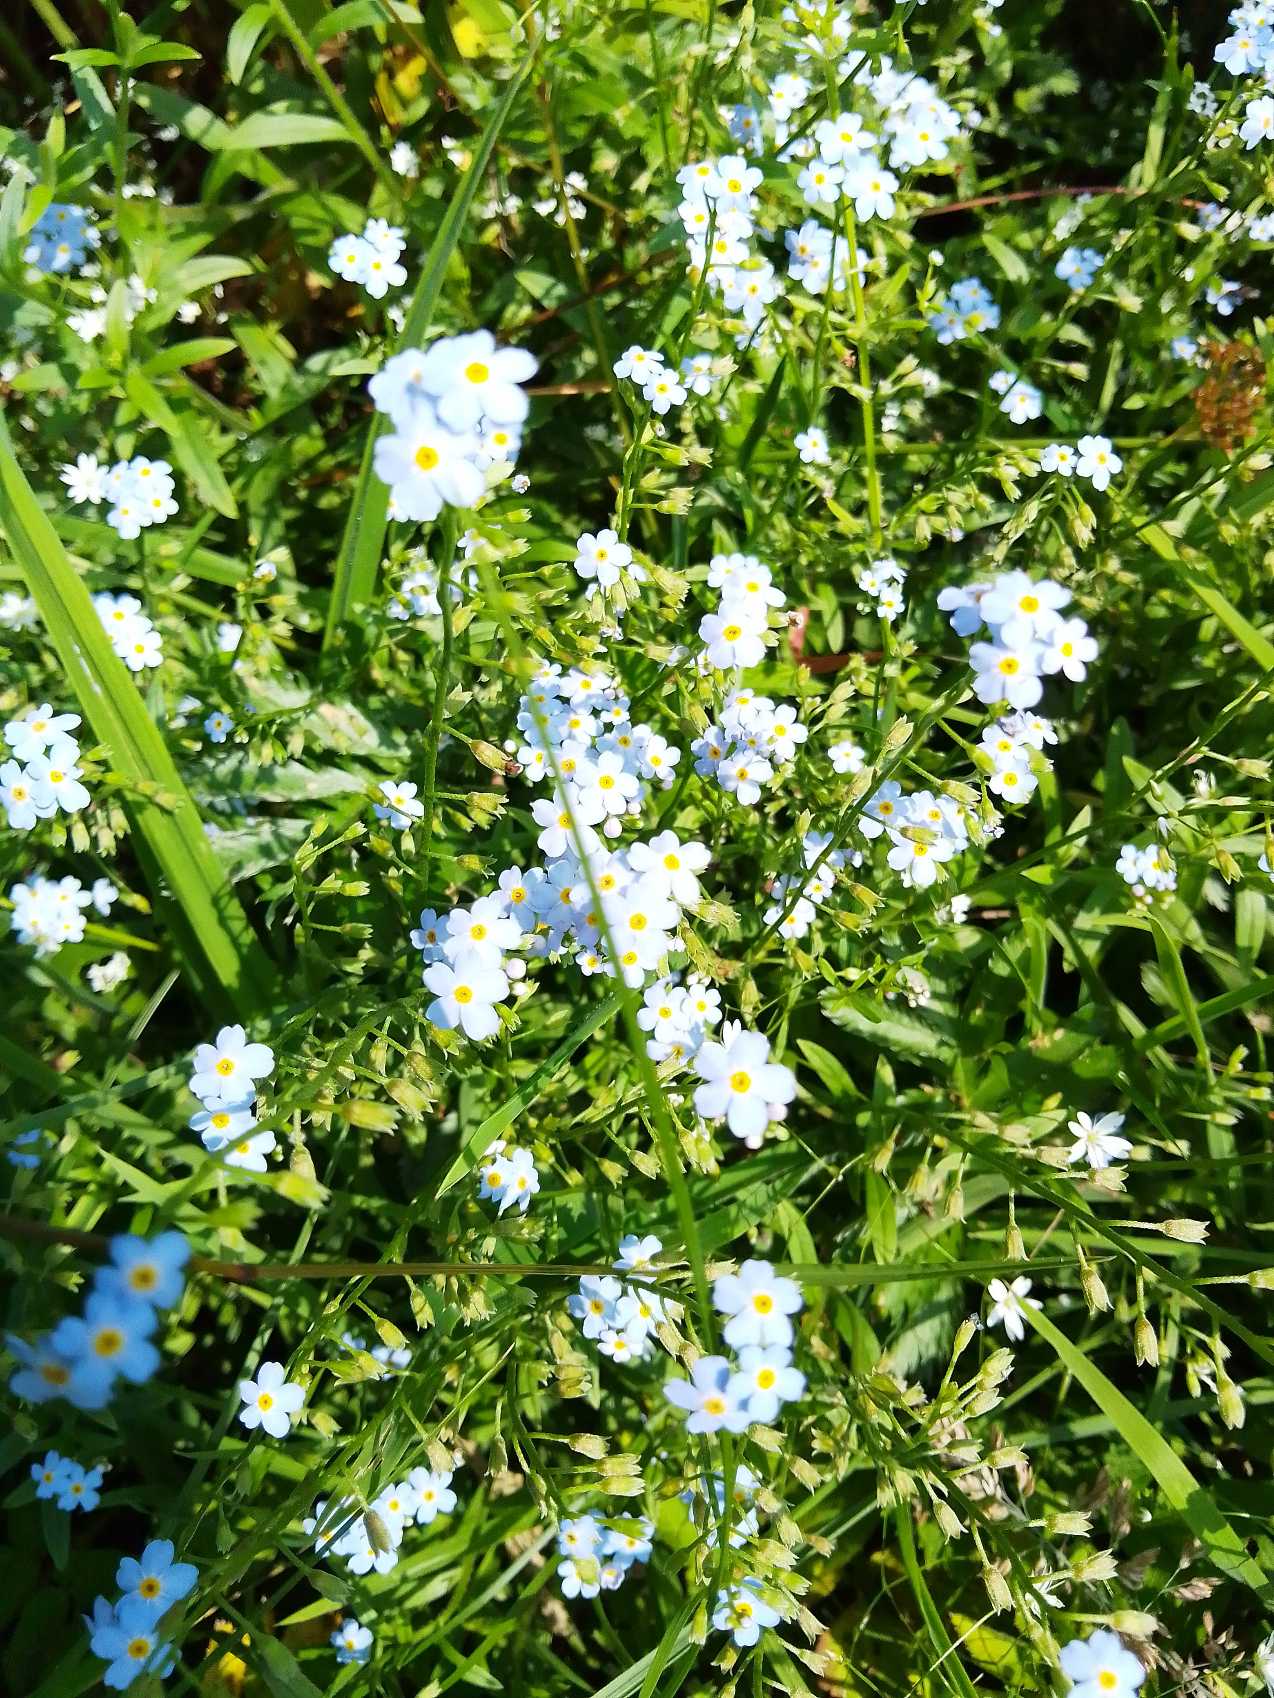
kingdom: Plantae
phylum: Tracheophyta
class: Magnoliopsida
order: Boraginales
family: Boraginaceae
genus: Myosotis
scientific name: Myosotis scorpioides
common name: Eng-forglemmigej
